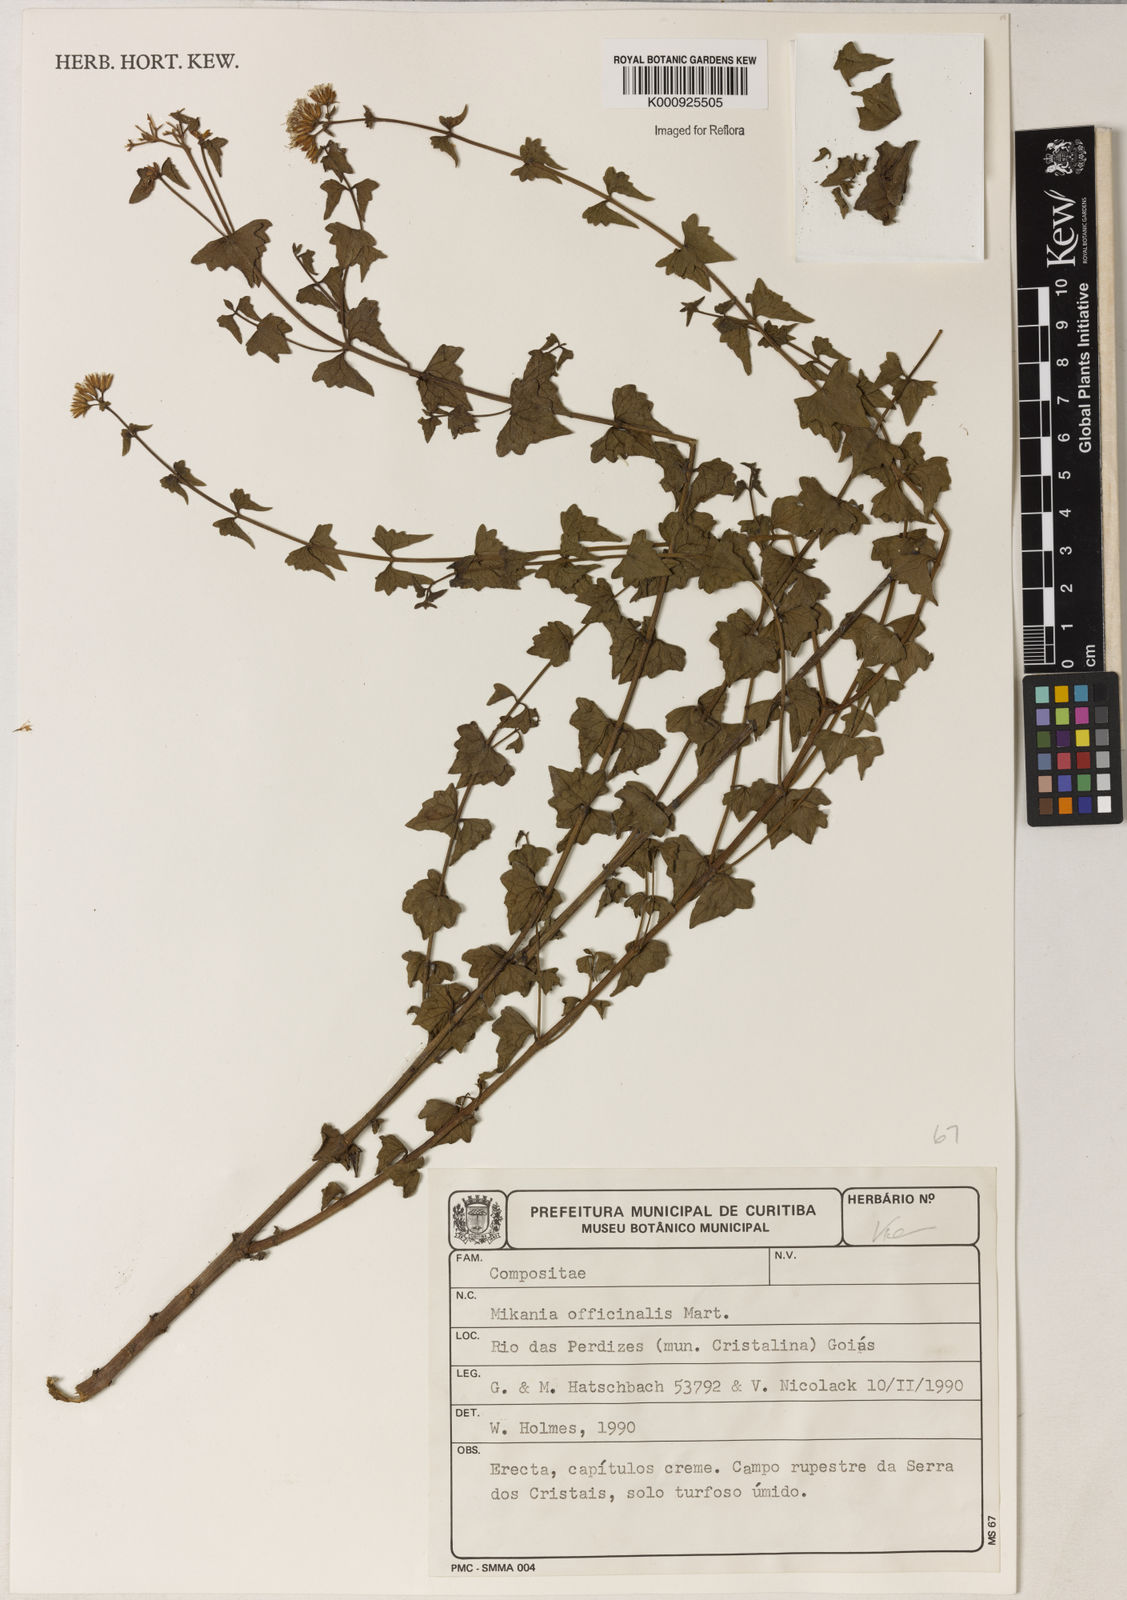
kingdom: Plantae
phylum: Tracheophyta
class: Magnoliopsida
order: Asterales
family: Asteraceae
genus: Mikania
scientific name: Mikania officinalis
